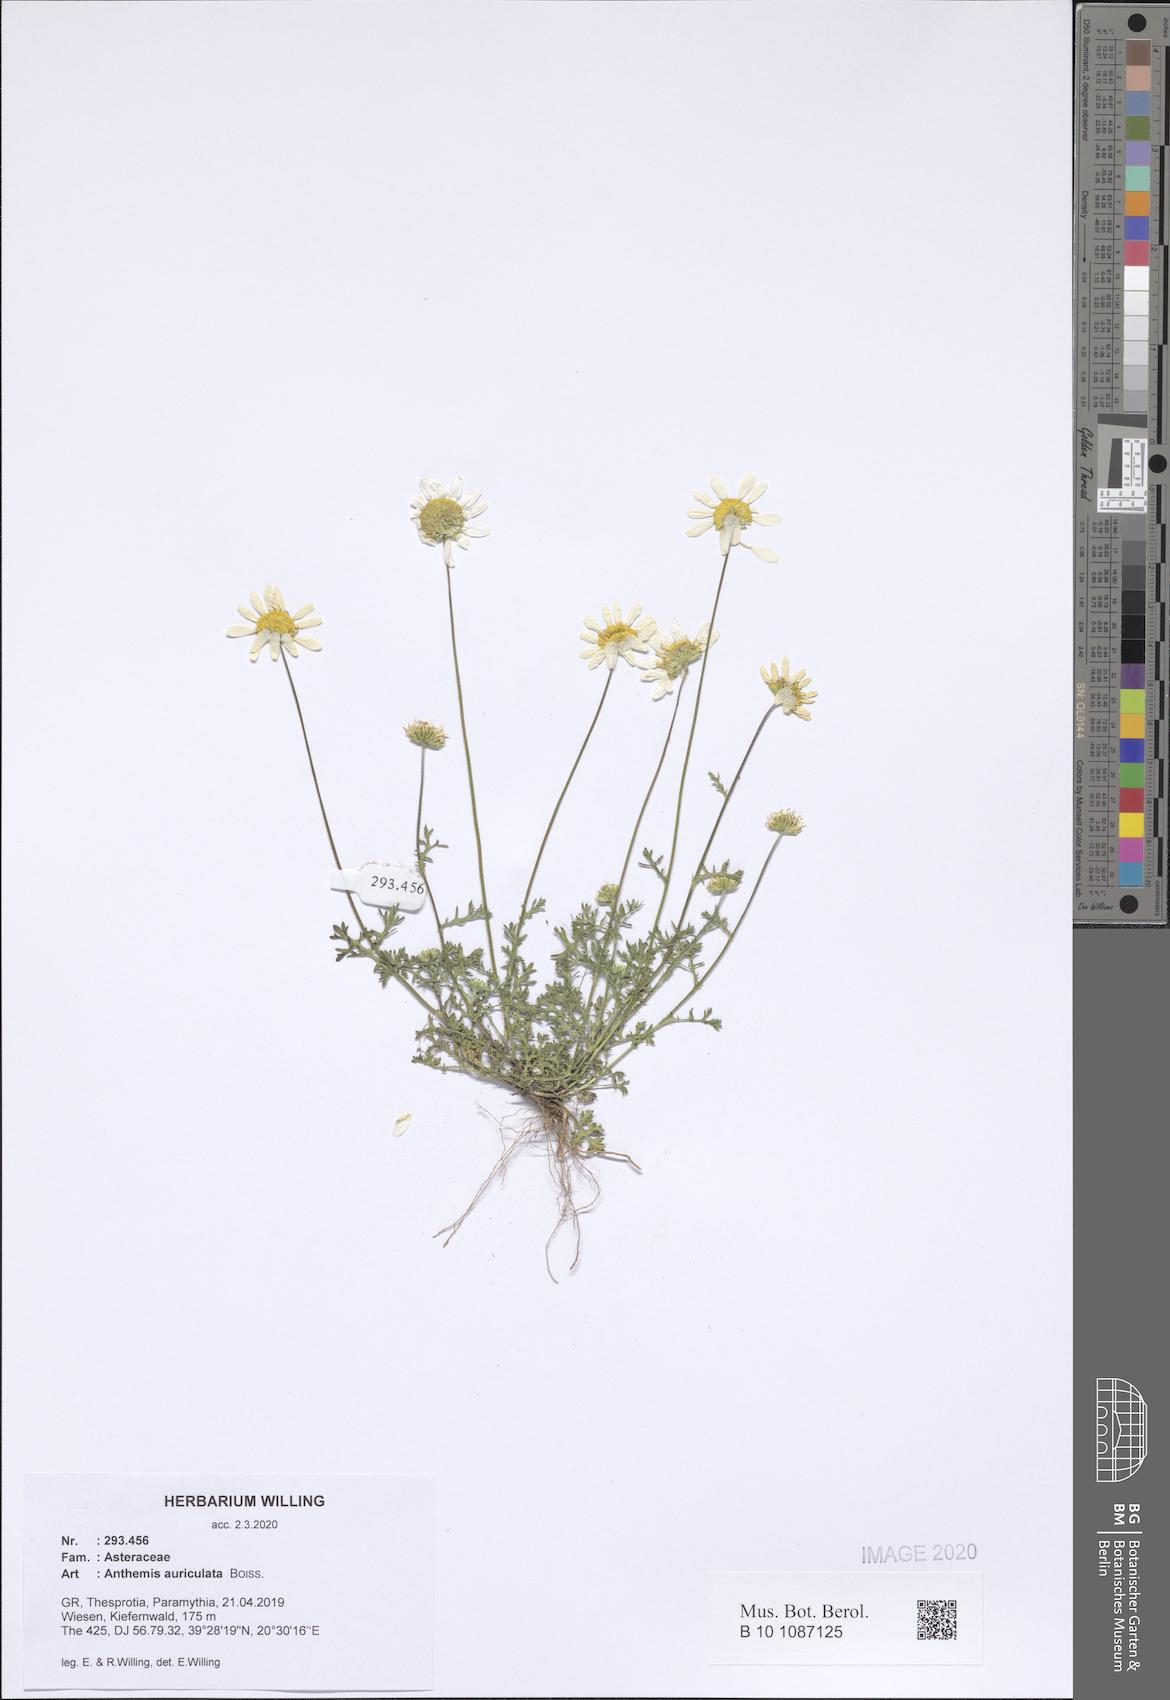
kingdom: Plantae
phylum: Tracheophyta
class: Magnoliopsida
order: Asterales
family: Asteraceae
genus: Anthemis
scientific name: Anthemis auriculata
